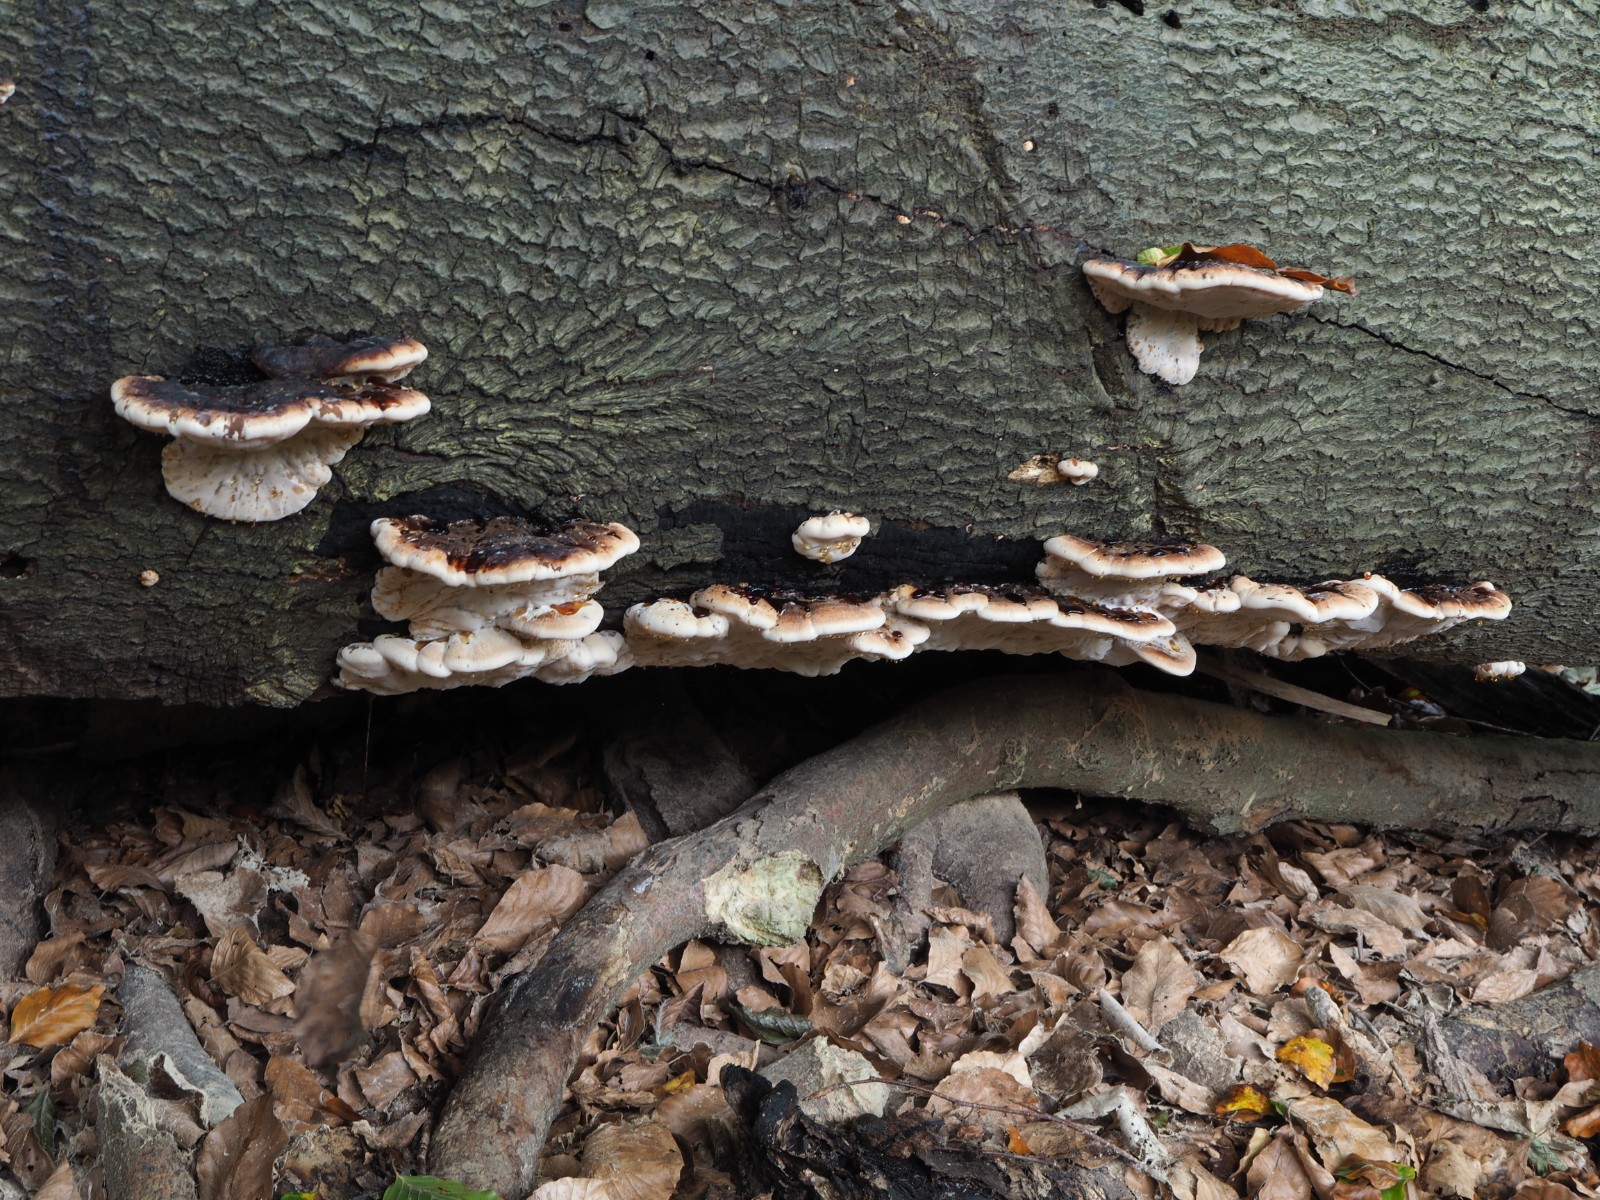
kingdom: Fungi
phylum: Basidiomycota
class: Agaricomycetes
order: Polyporales
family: Ischnodermataceae
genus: Ischnoderma
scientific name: Ischnoderma resinosum
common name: løv-tjæreporesvamp
